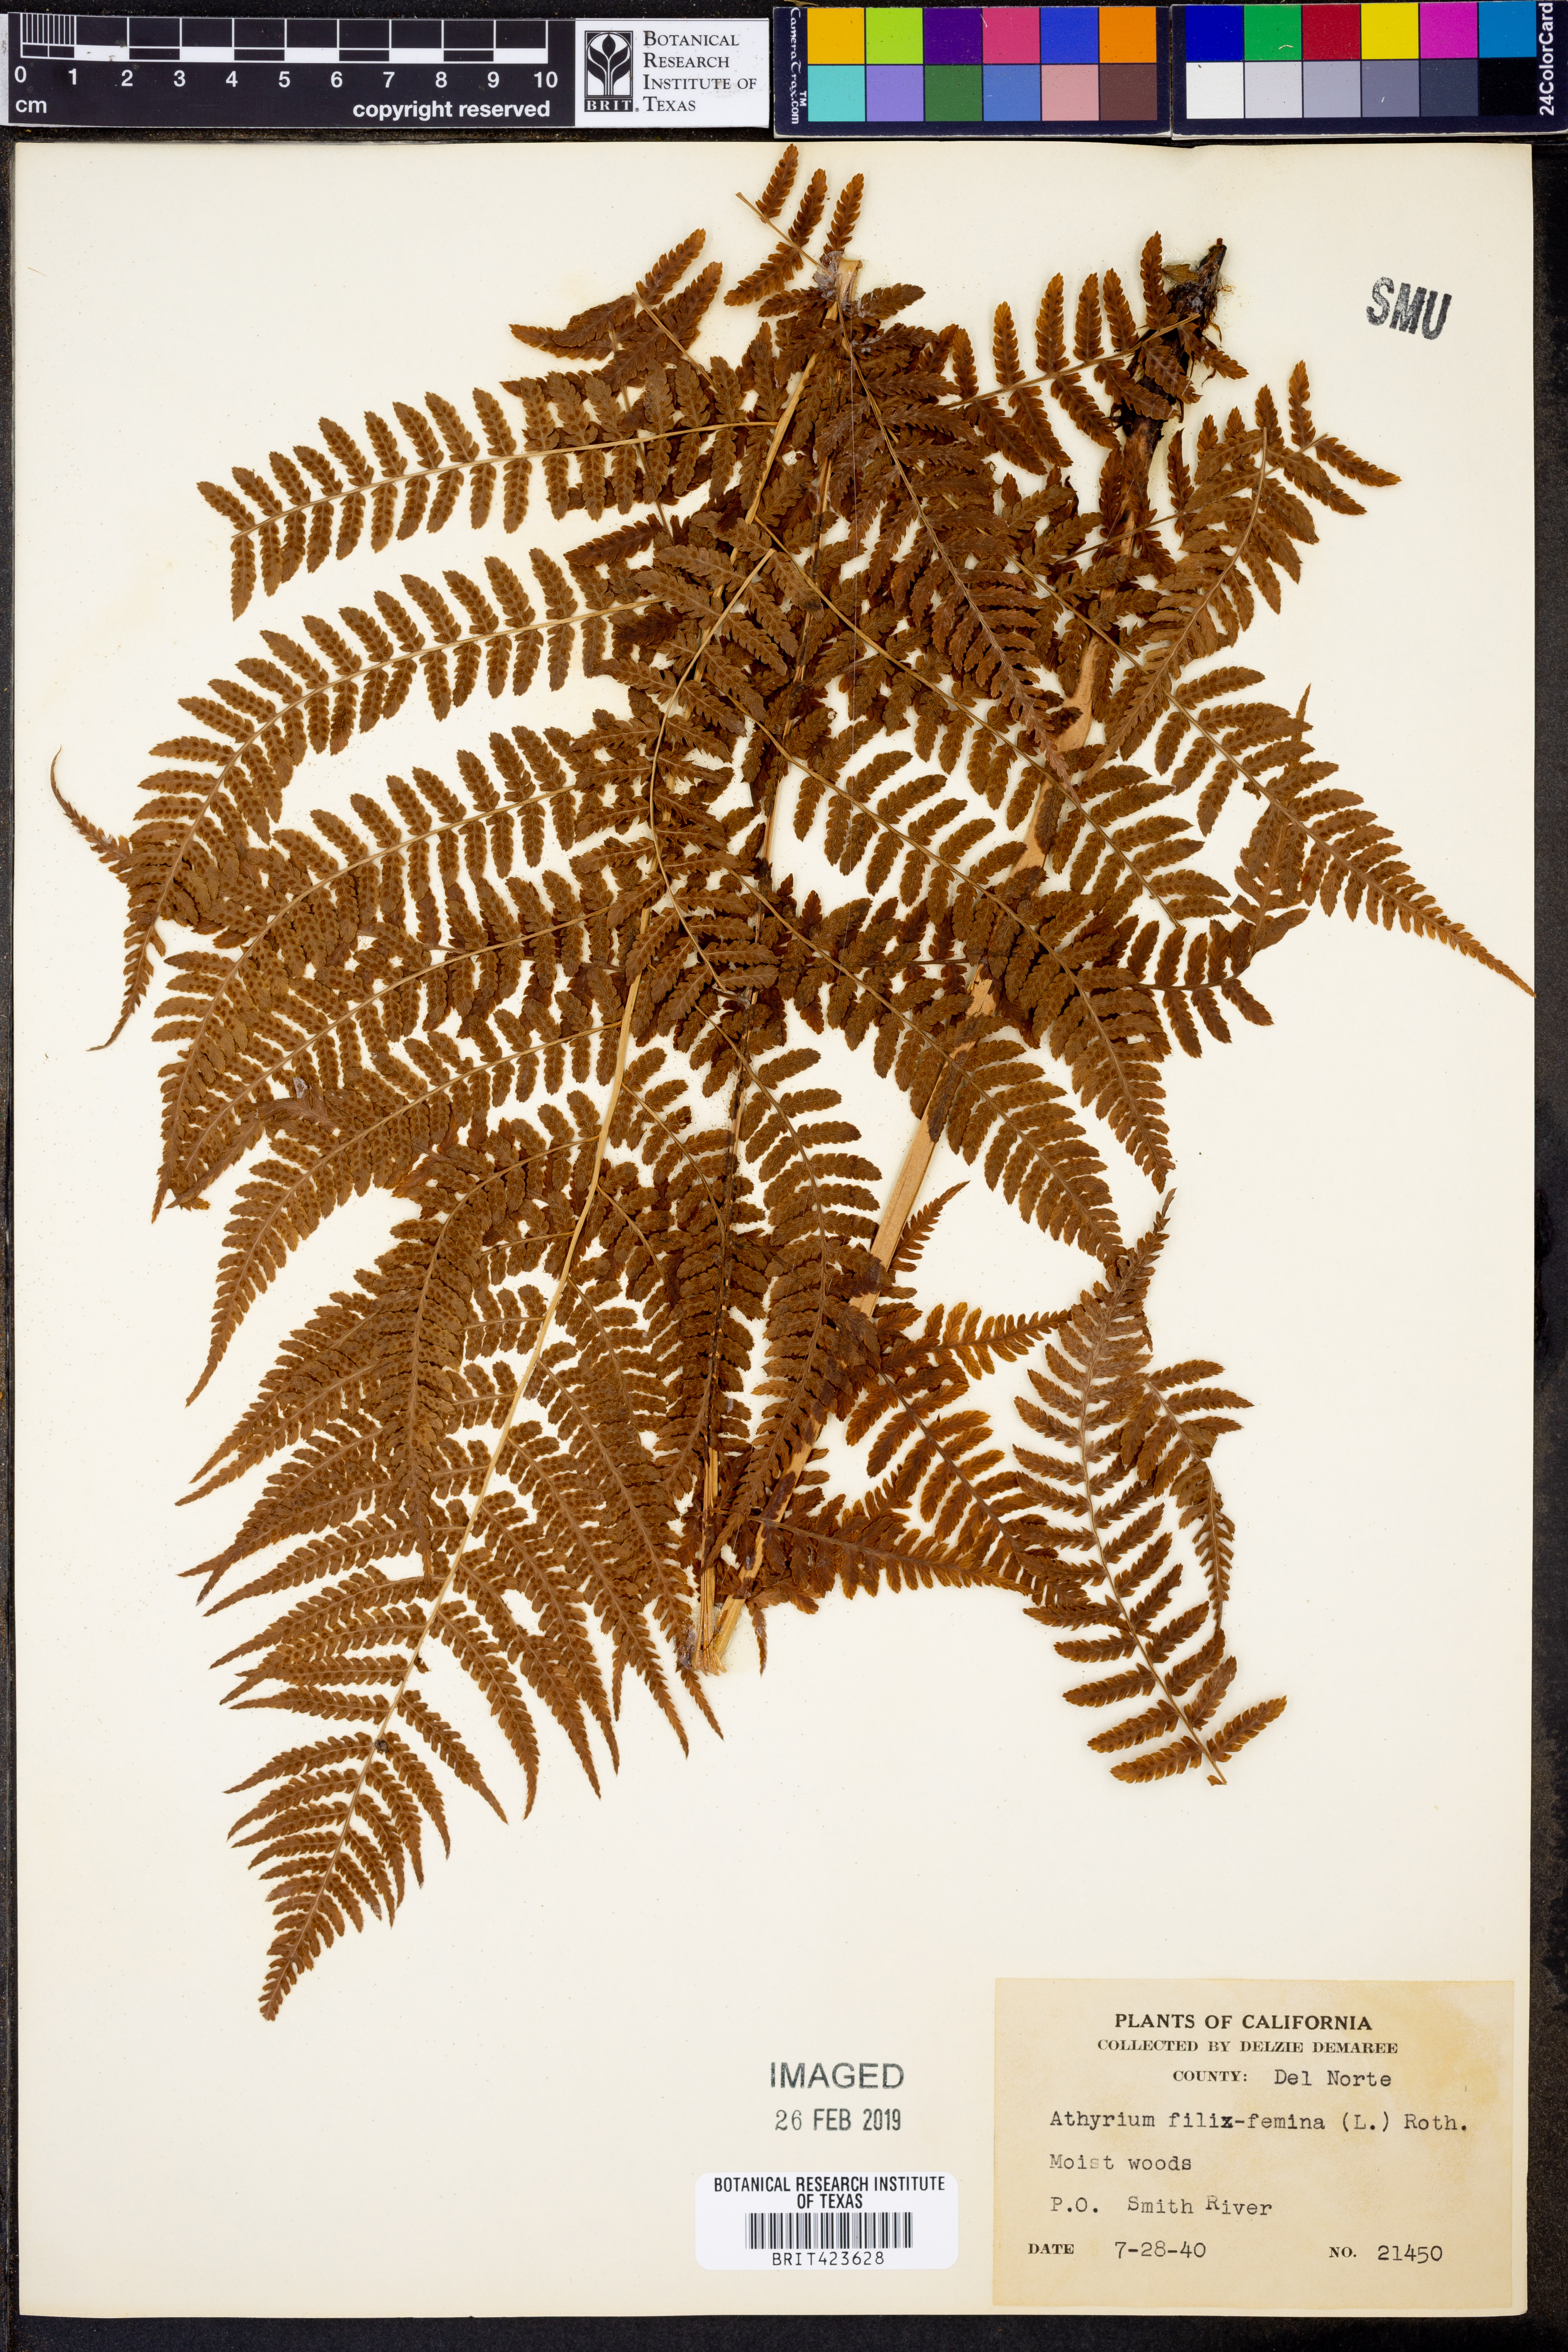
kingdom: Plantae
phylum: Tracheophyta
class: Polypodiopsida
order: Polypodiales
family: Athyriaceae
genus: Athyrium
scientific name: Athyrium filix-femina
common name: Lady fern
